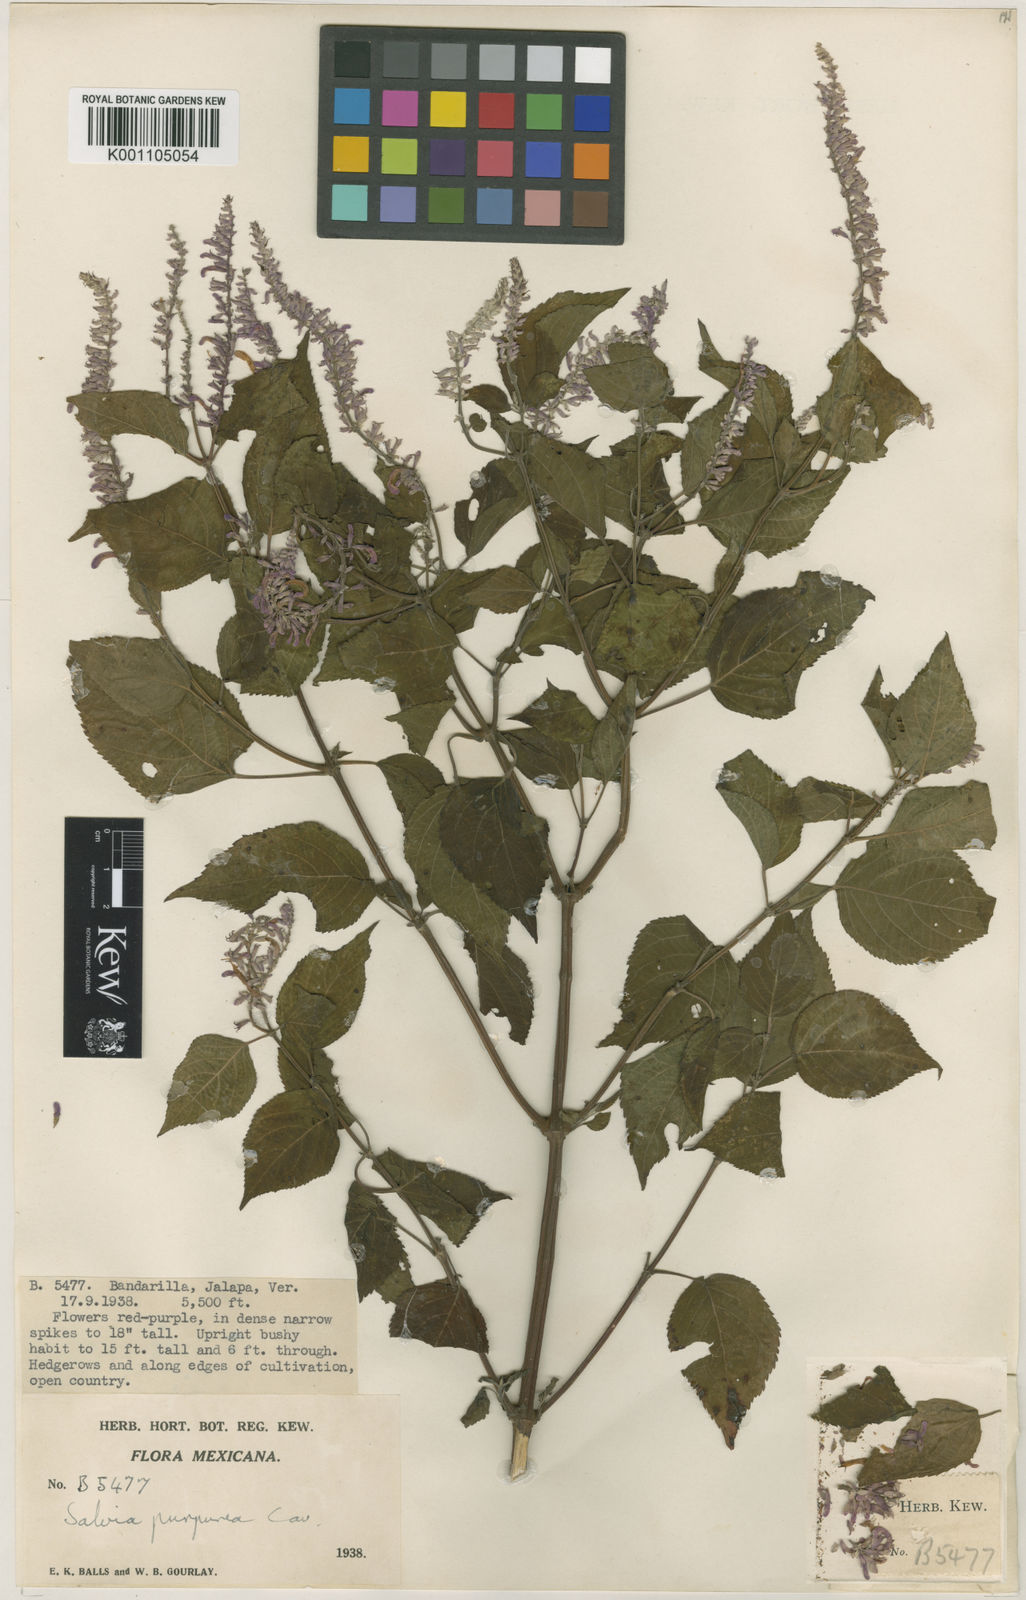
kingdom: Plantae
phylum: Tracheophyta
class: Magnoliopsida
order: Lamiales
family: Lamiaceae
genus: Salvia
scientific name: Salvia
